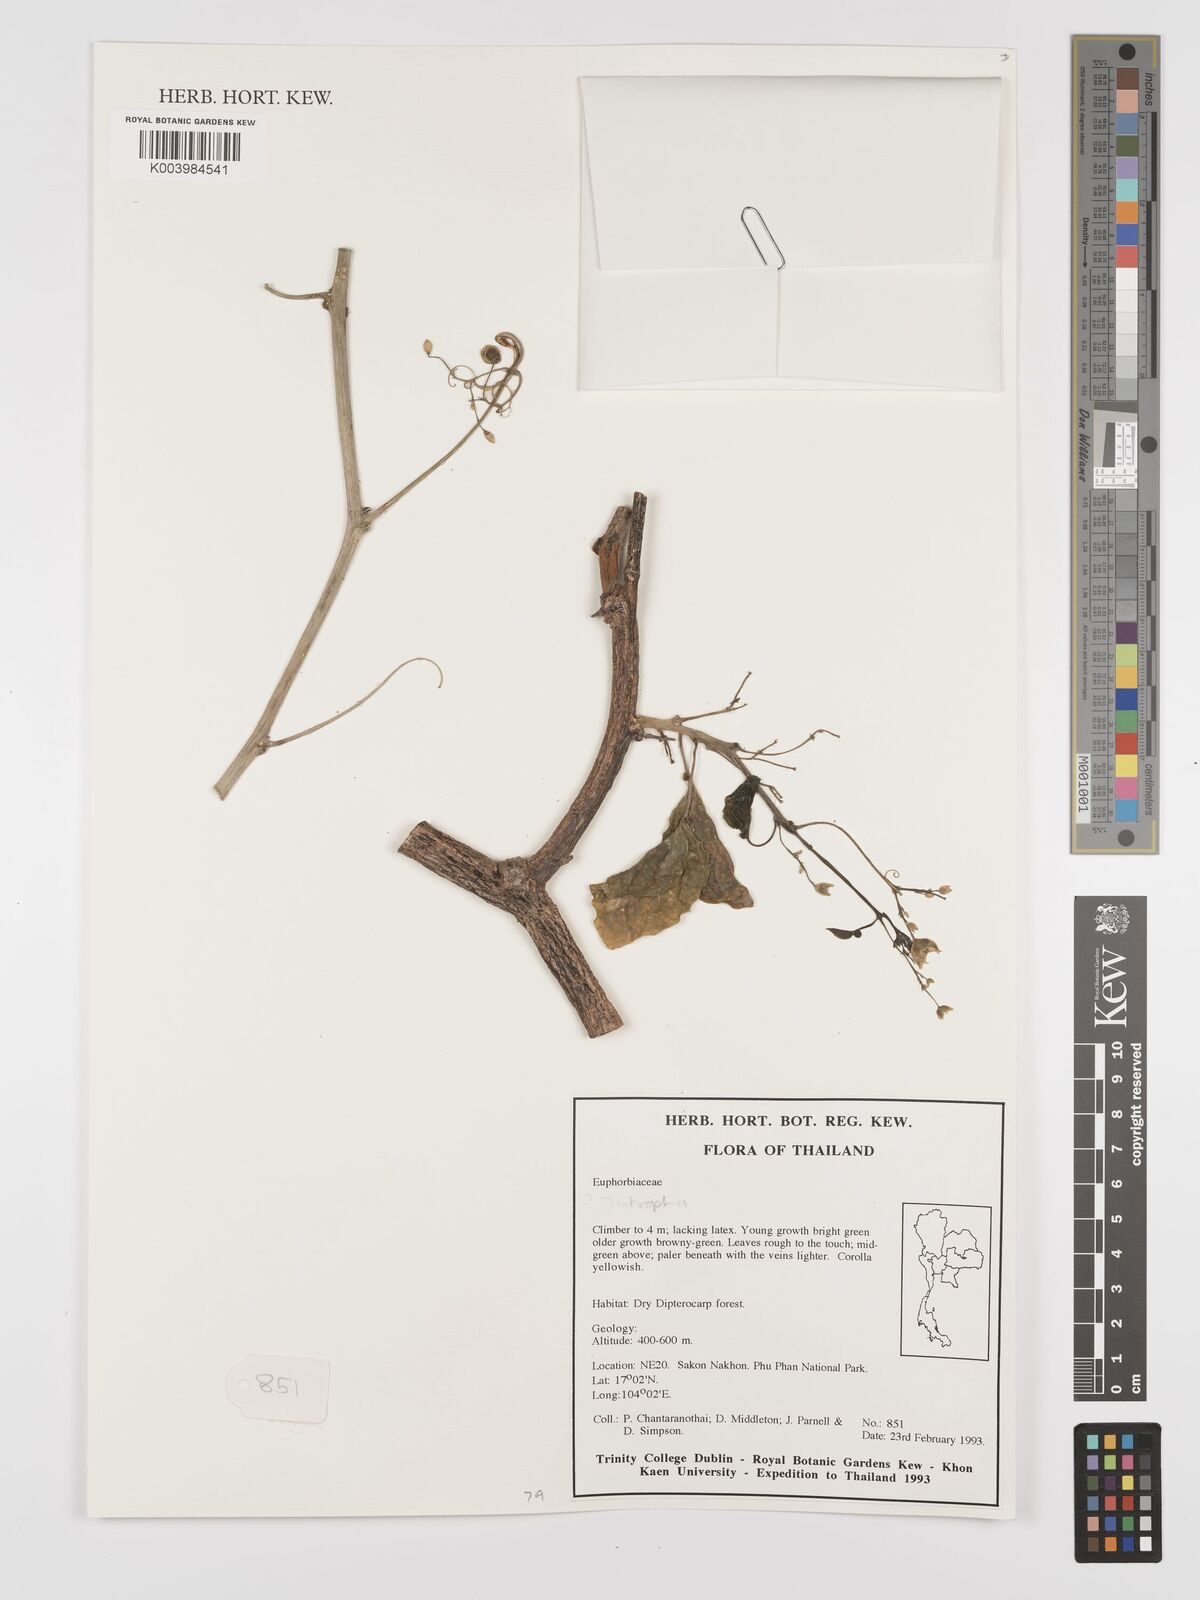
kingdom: Plantae
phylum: Tracheophyta
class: Magnoliopsida
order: Malpighiales
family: Euphorbiaceae
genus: Jatropha
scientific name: Jatropha
